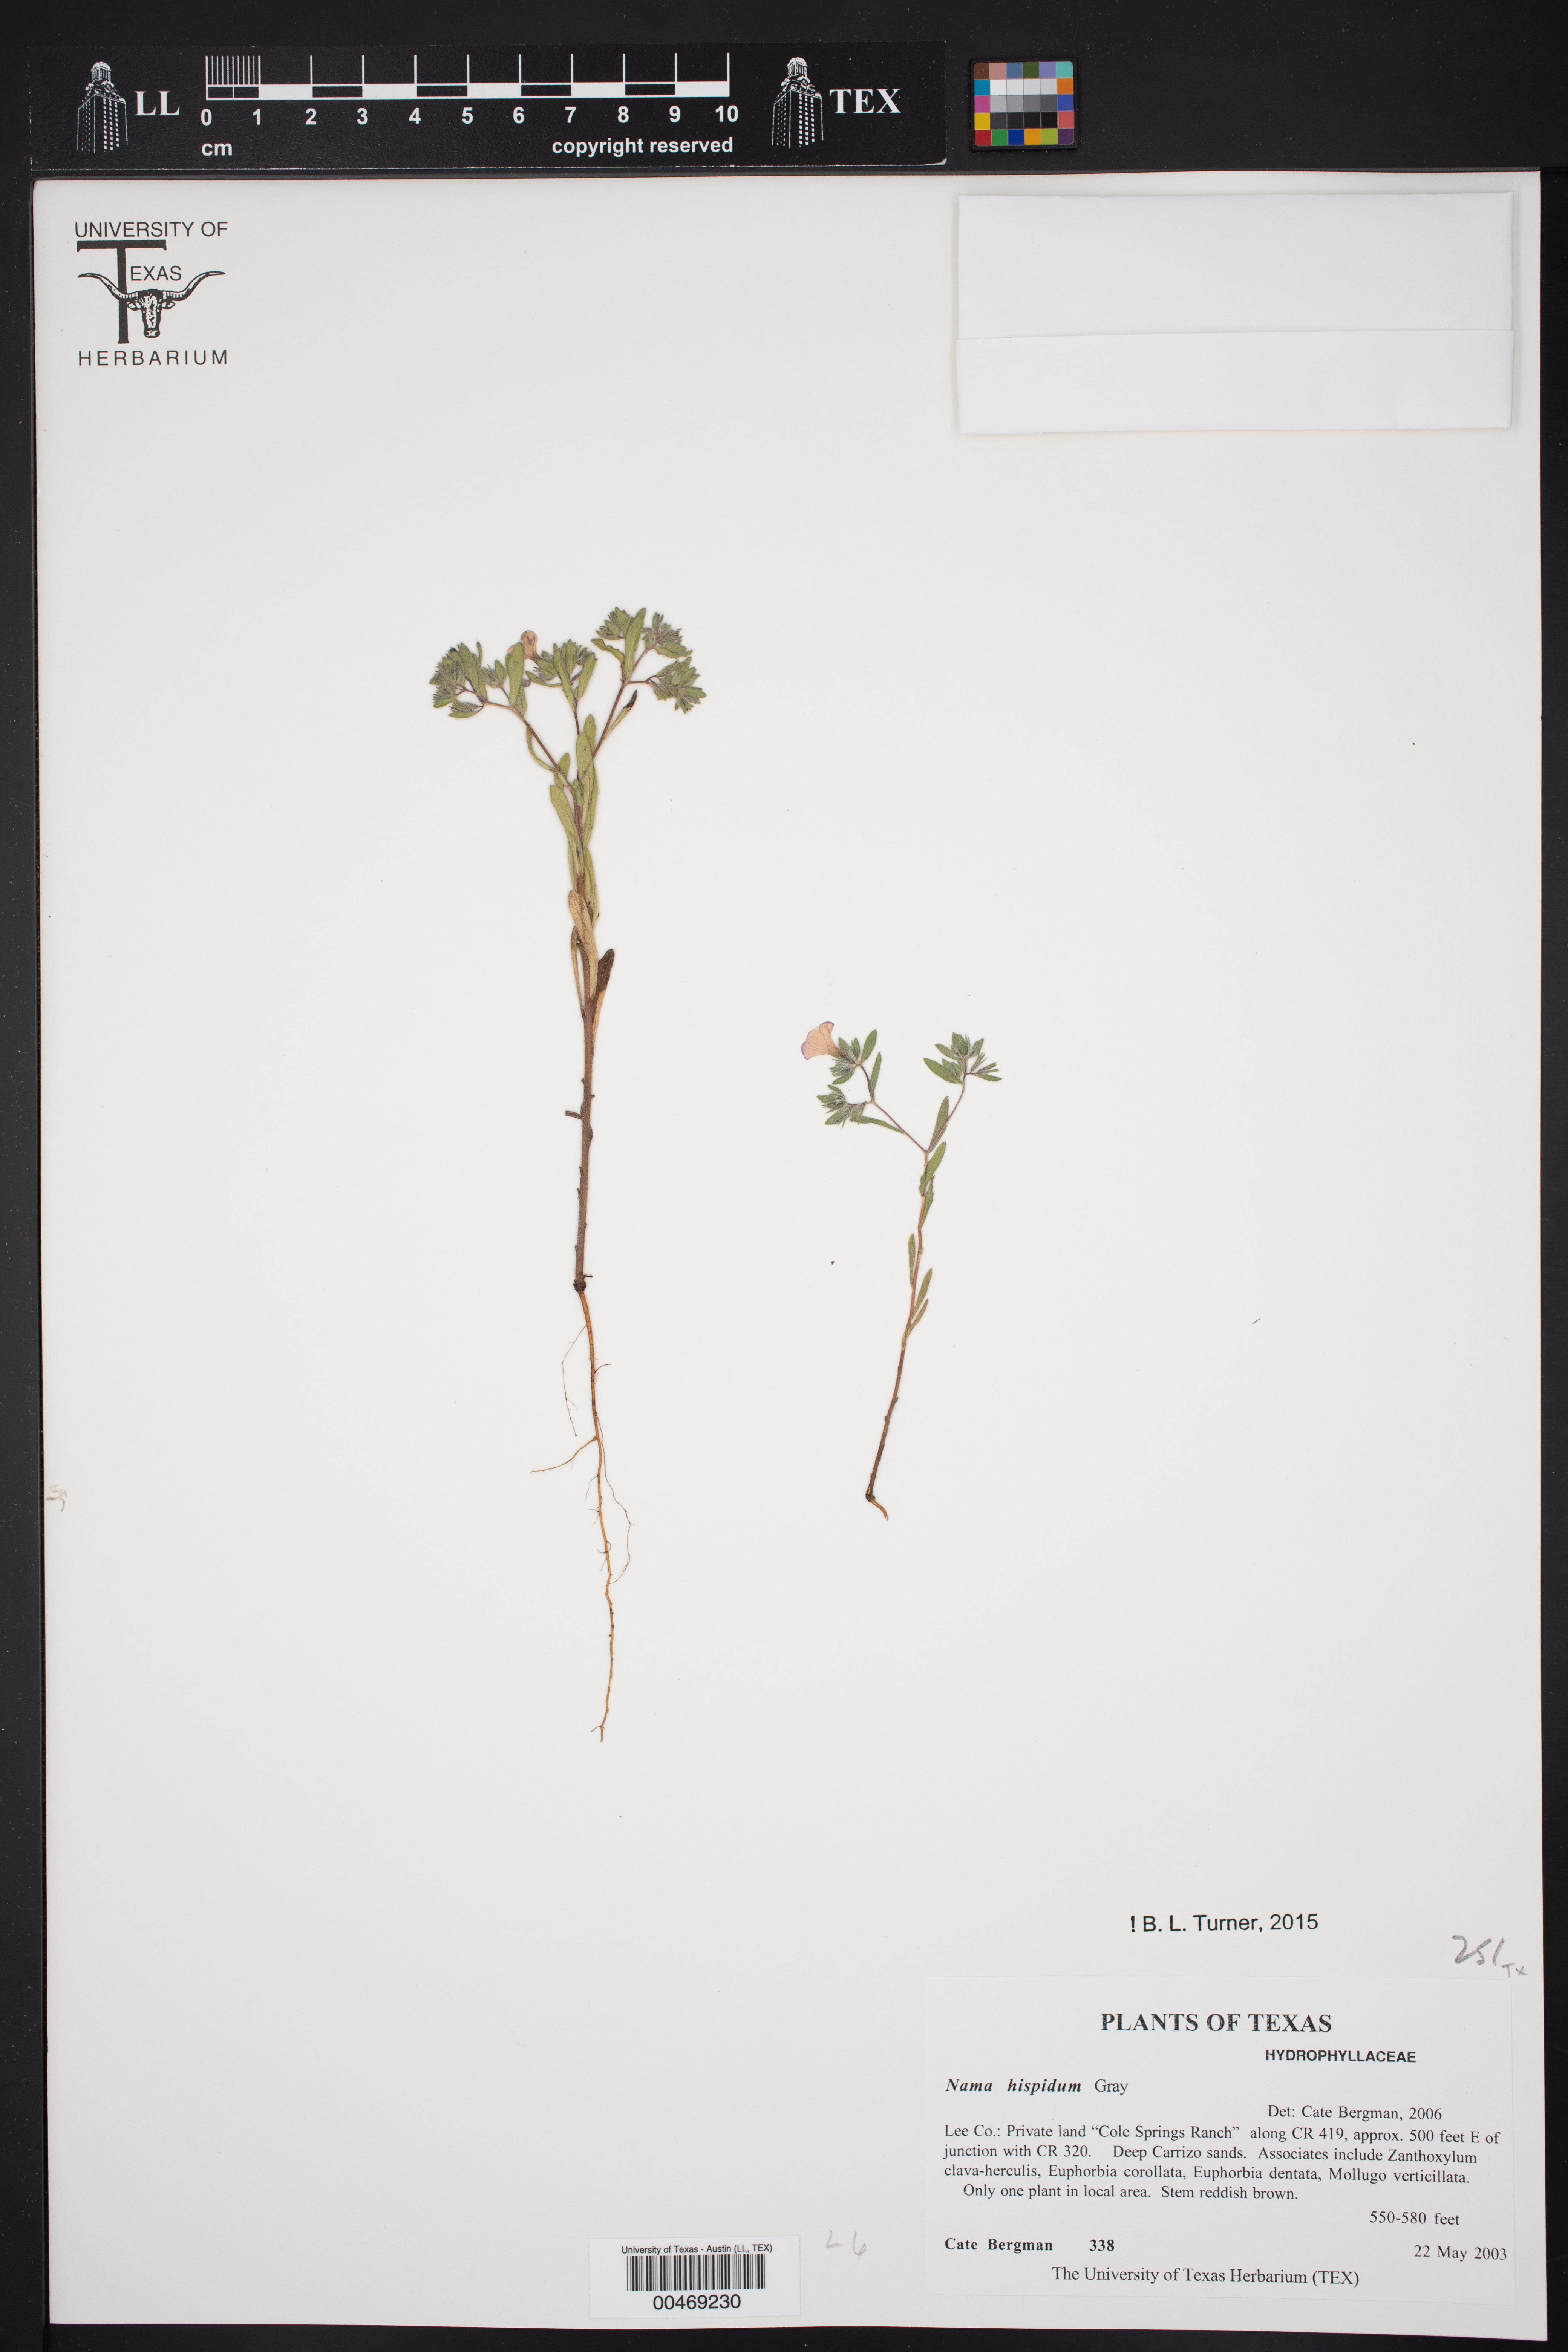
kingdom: Plantae
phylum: Tracheophyta
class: Magnoliopsida
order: Boraginales
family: Namaceae
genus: Nama
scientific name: Nama hispida
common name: Bristly nama
